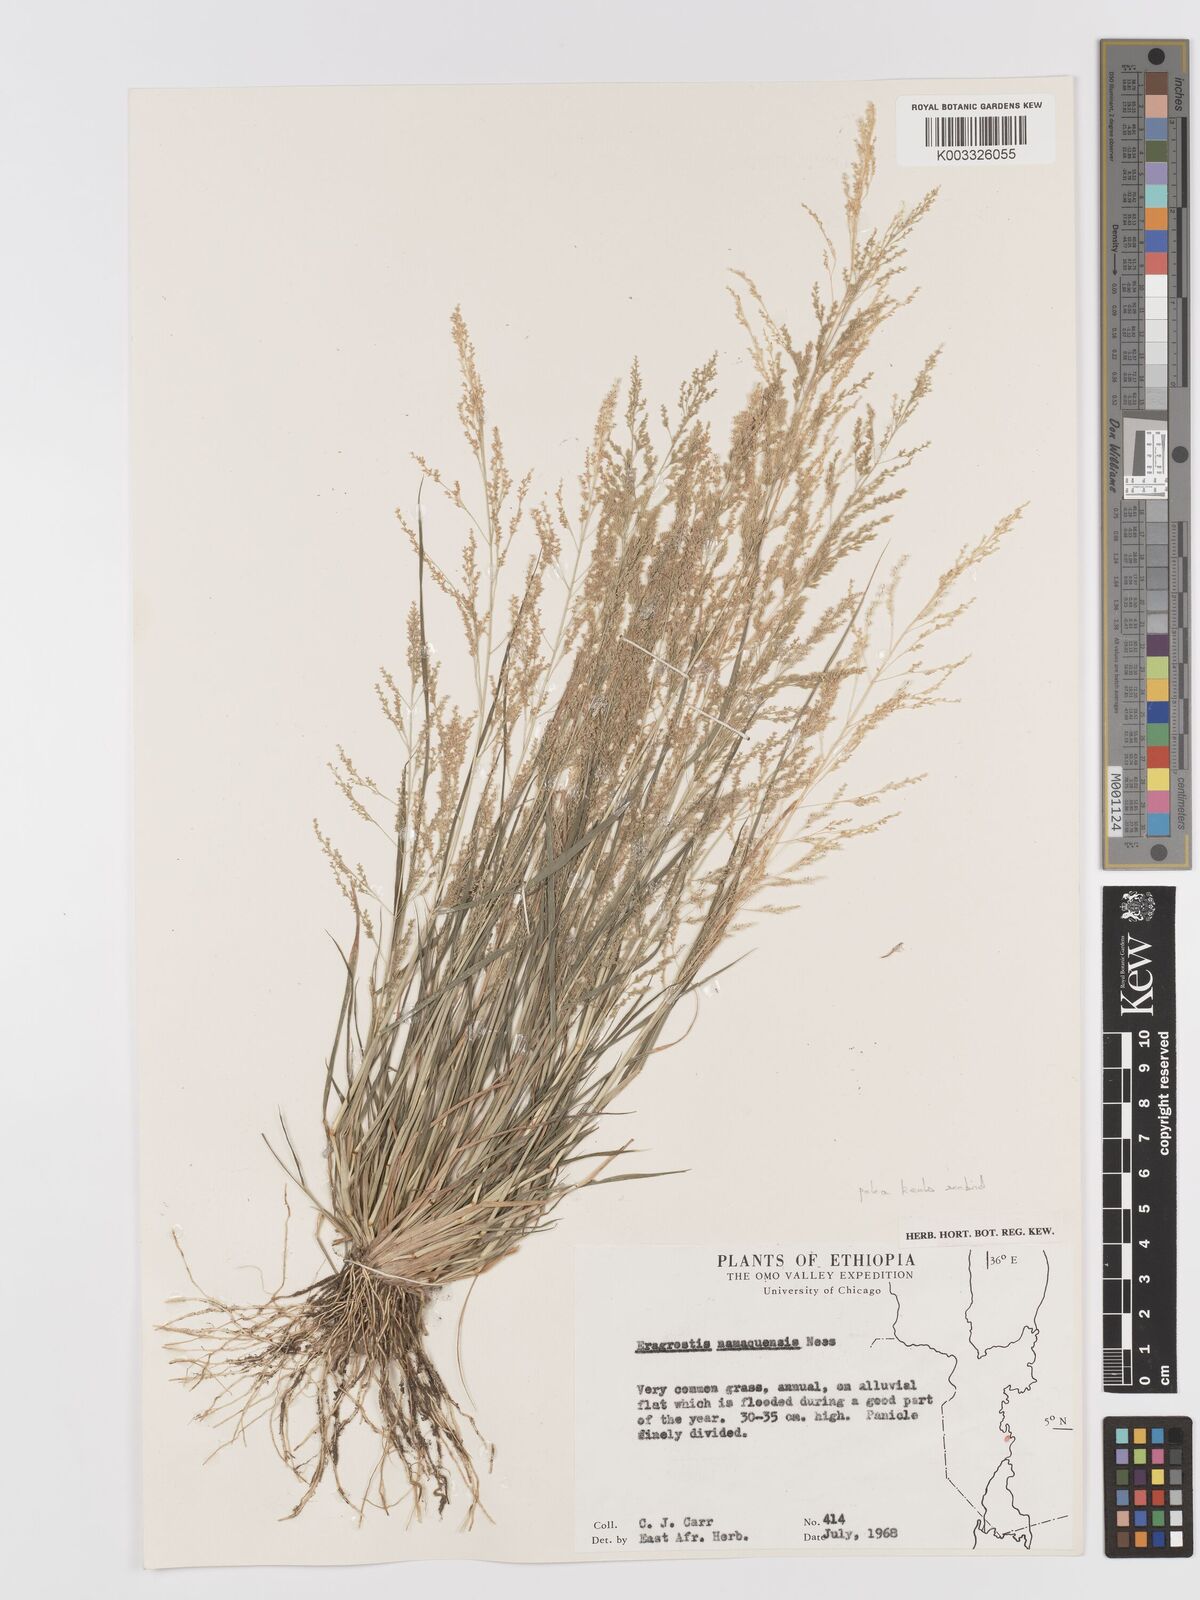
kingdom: Plantae
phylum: Tracheophyta
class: Liliopsida
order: Poales
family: Poaceae
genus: Eragrostis
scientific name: Eragrostis japonica
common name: Pond lovegrass
